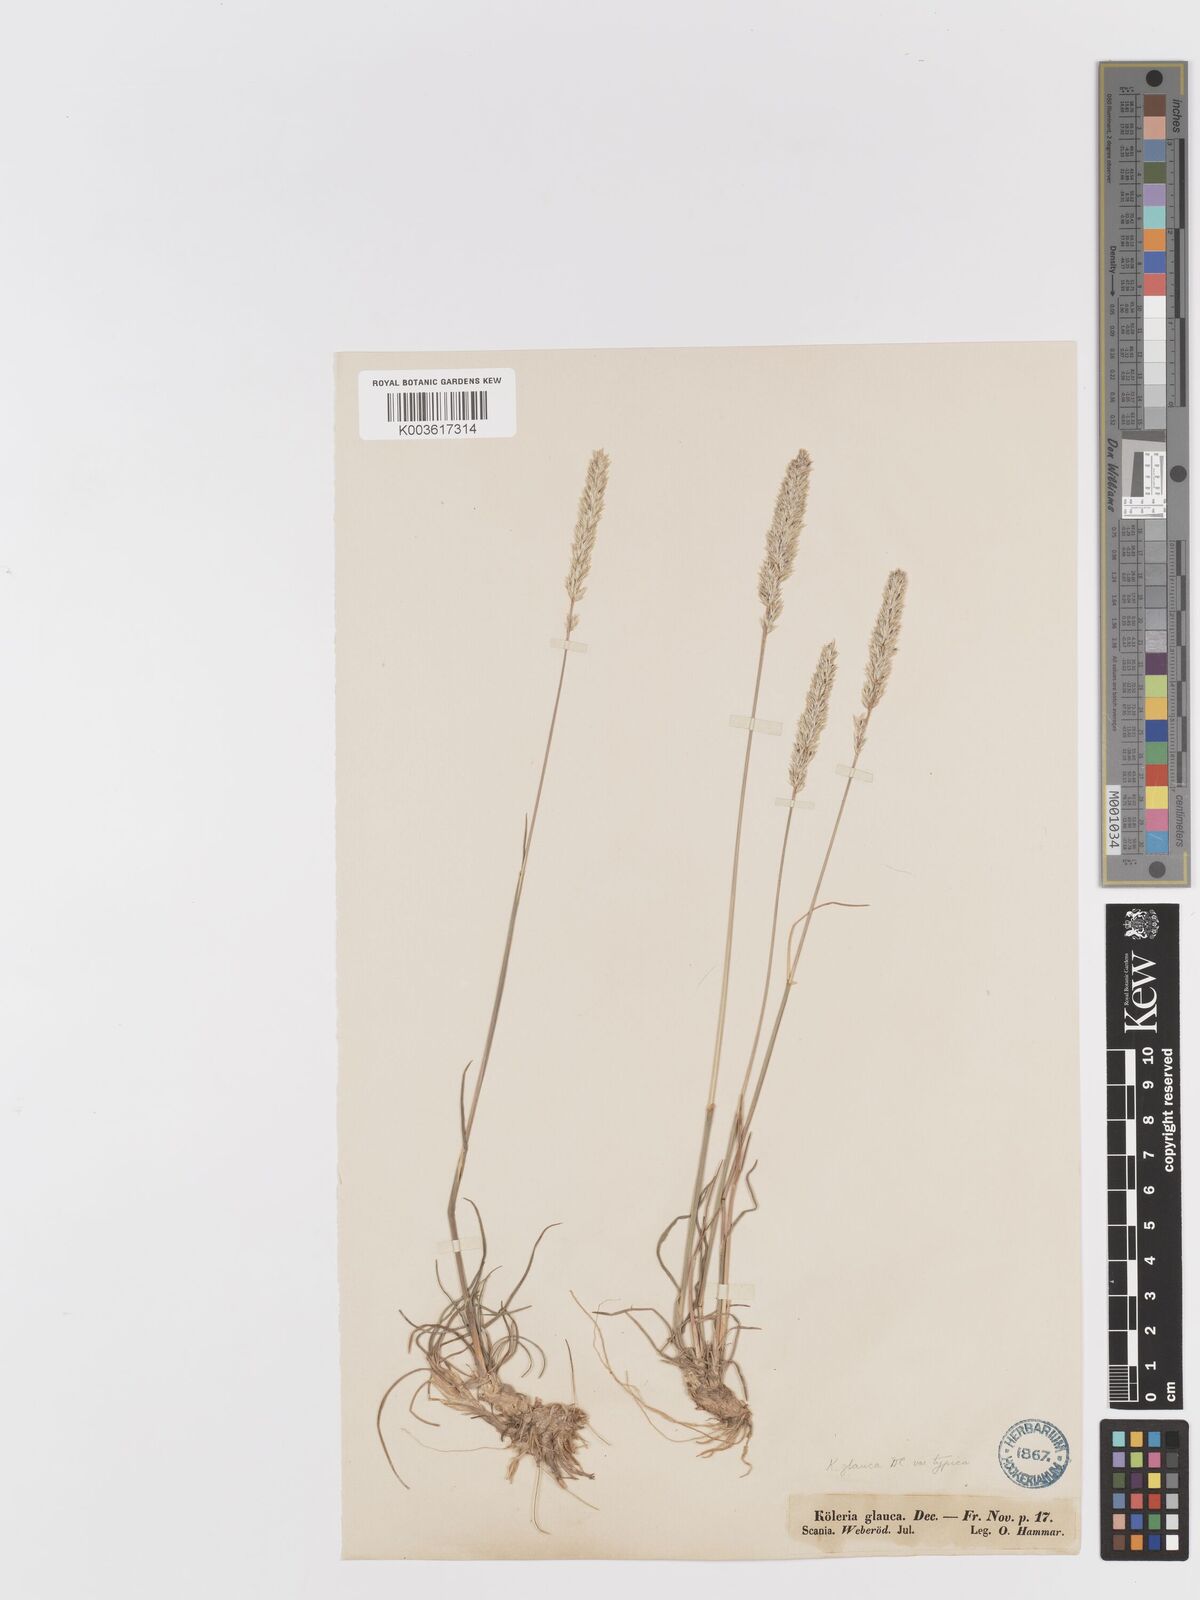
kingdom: Plantae
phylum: Tracheophyta
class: Liliopsida
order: Poales
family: Poaceae
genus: Koeleria
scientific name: Koeleria glauca
